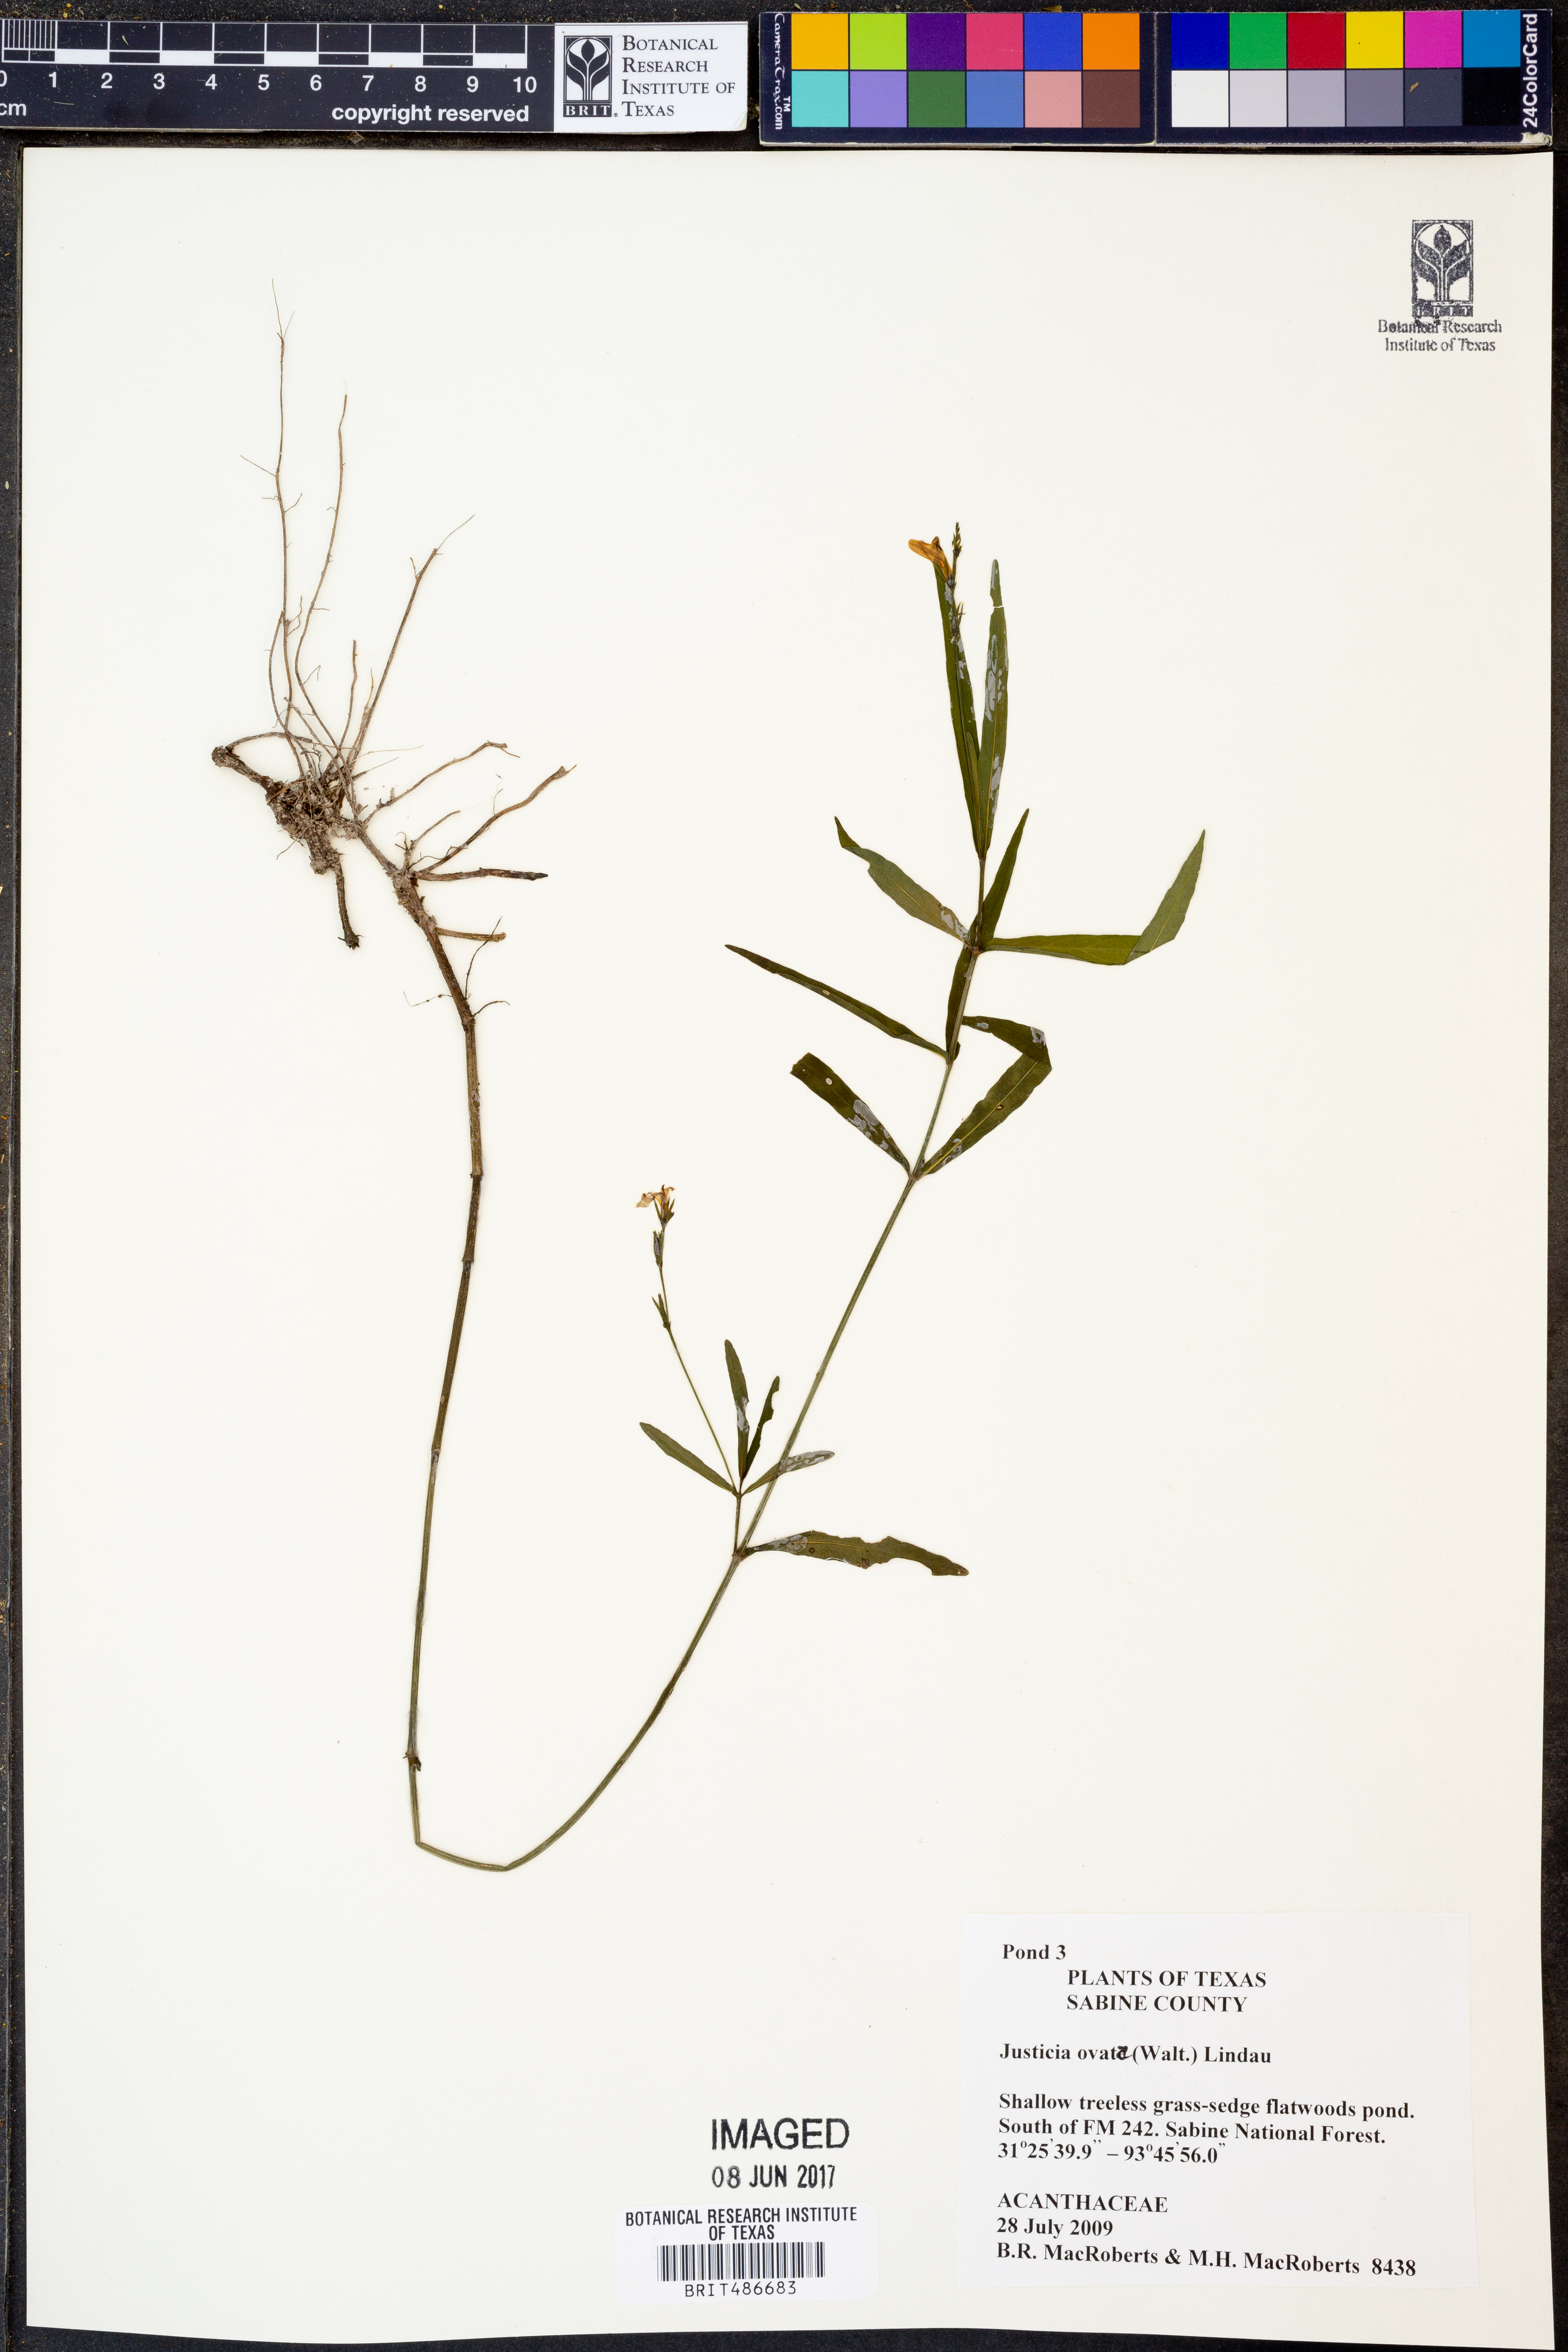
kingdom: Plantae
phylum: Tracheophyta
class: Magnoliopsida
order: Lamiales
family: Acanthaceae
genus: Dianthera
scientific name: Dianthera ovata
